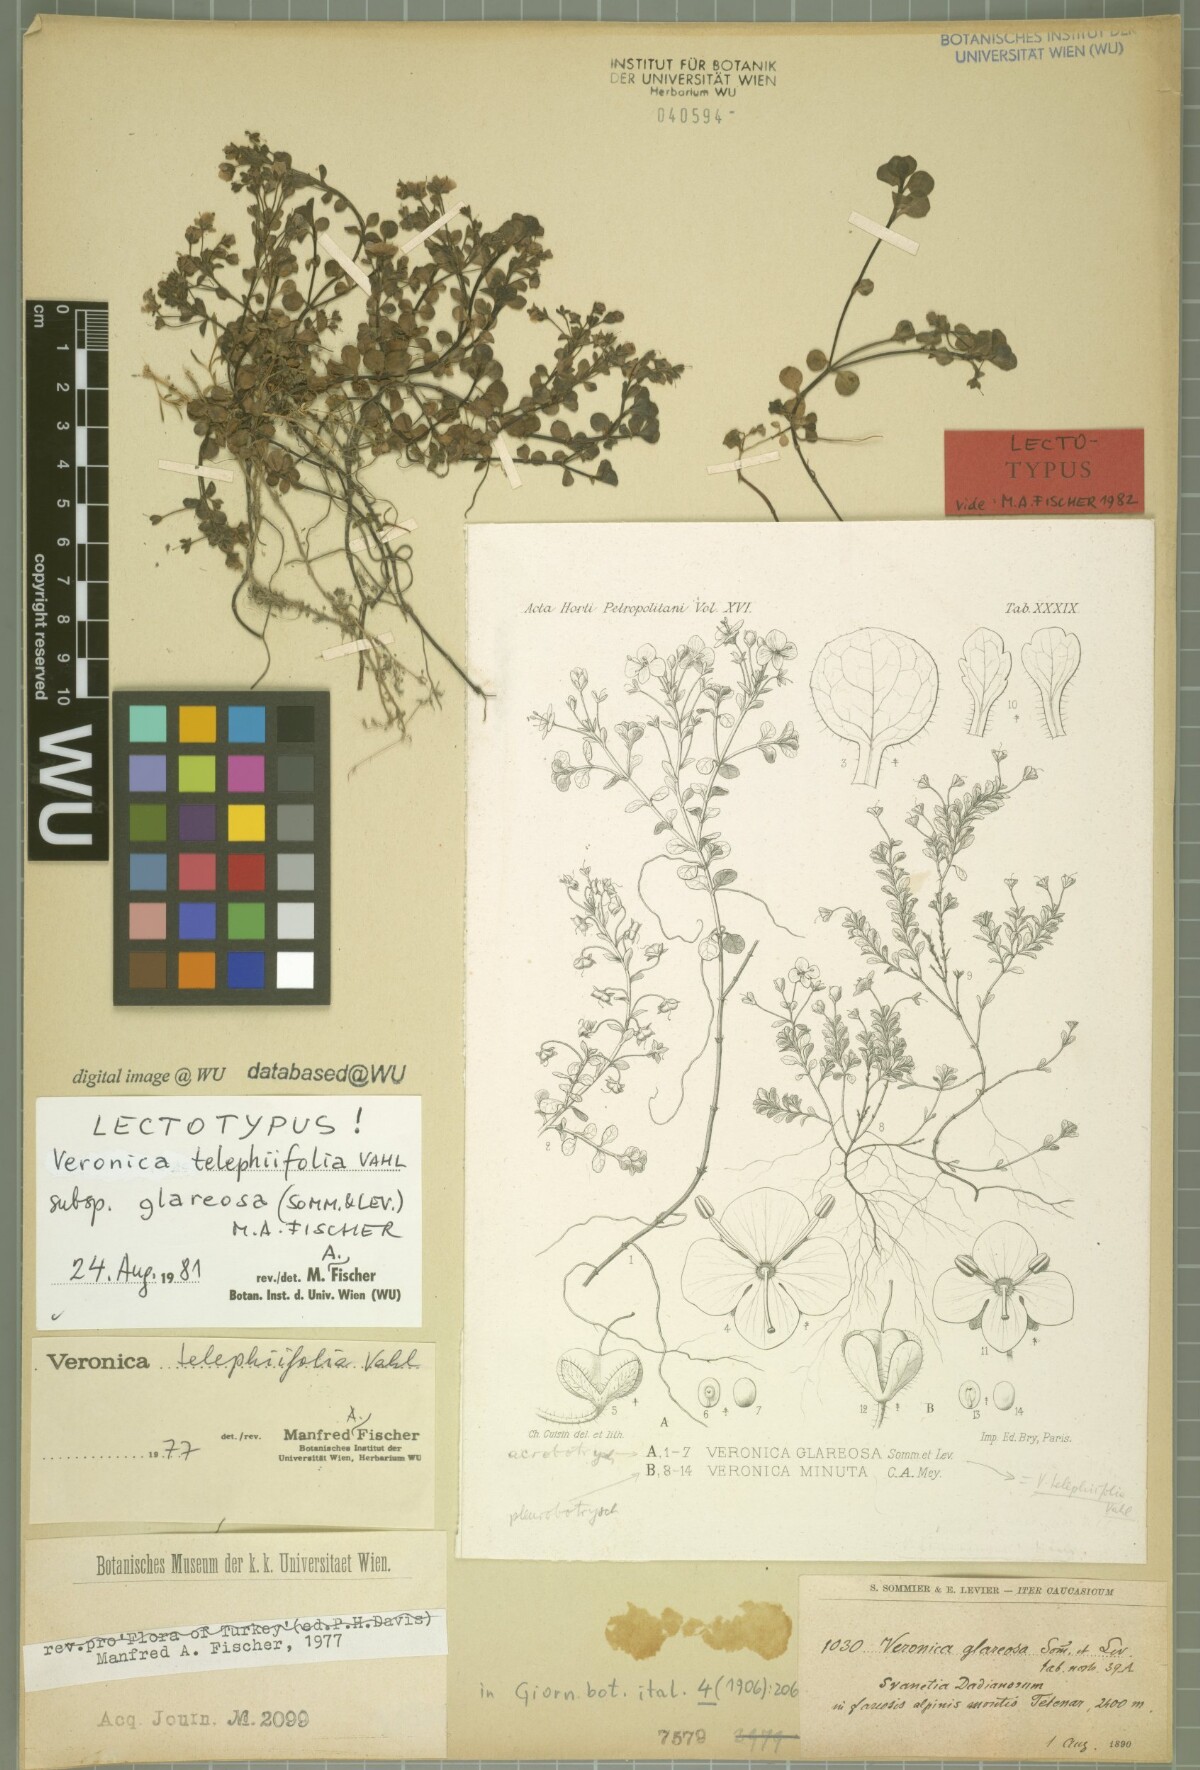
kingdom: Plantae
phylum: Tracheophyta
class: Magnoliopsida
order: Lamiales
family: Plantaginaceae
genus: Veronica
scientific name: Veronica telephiifolia
